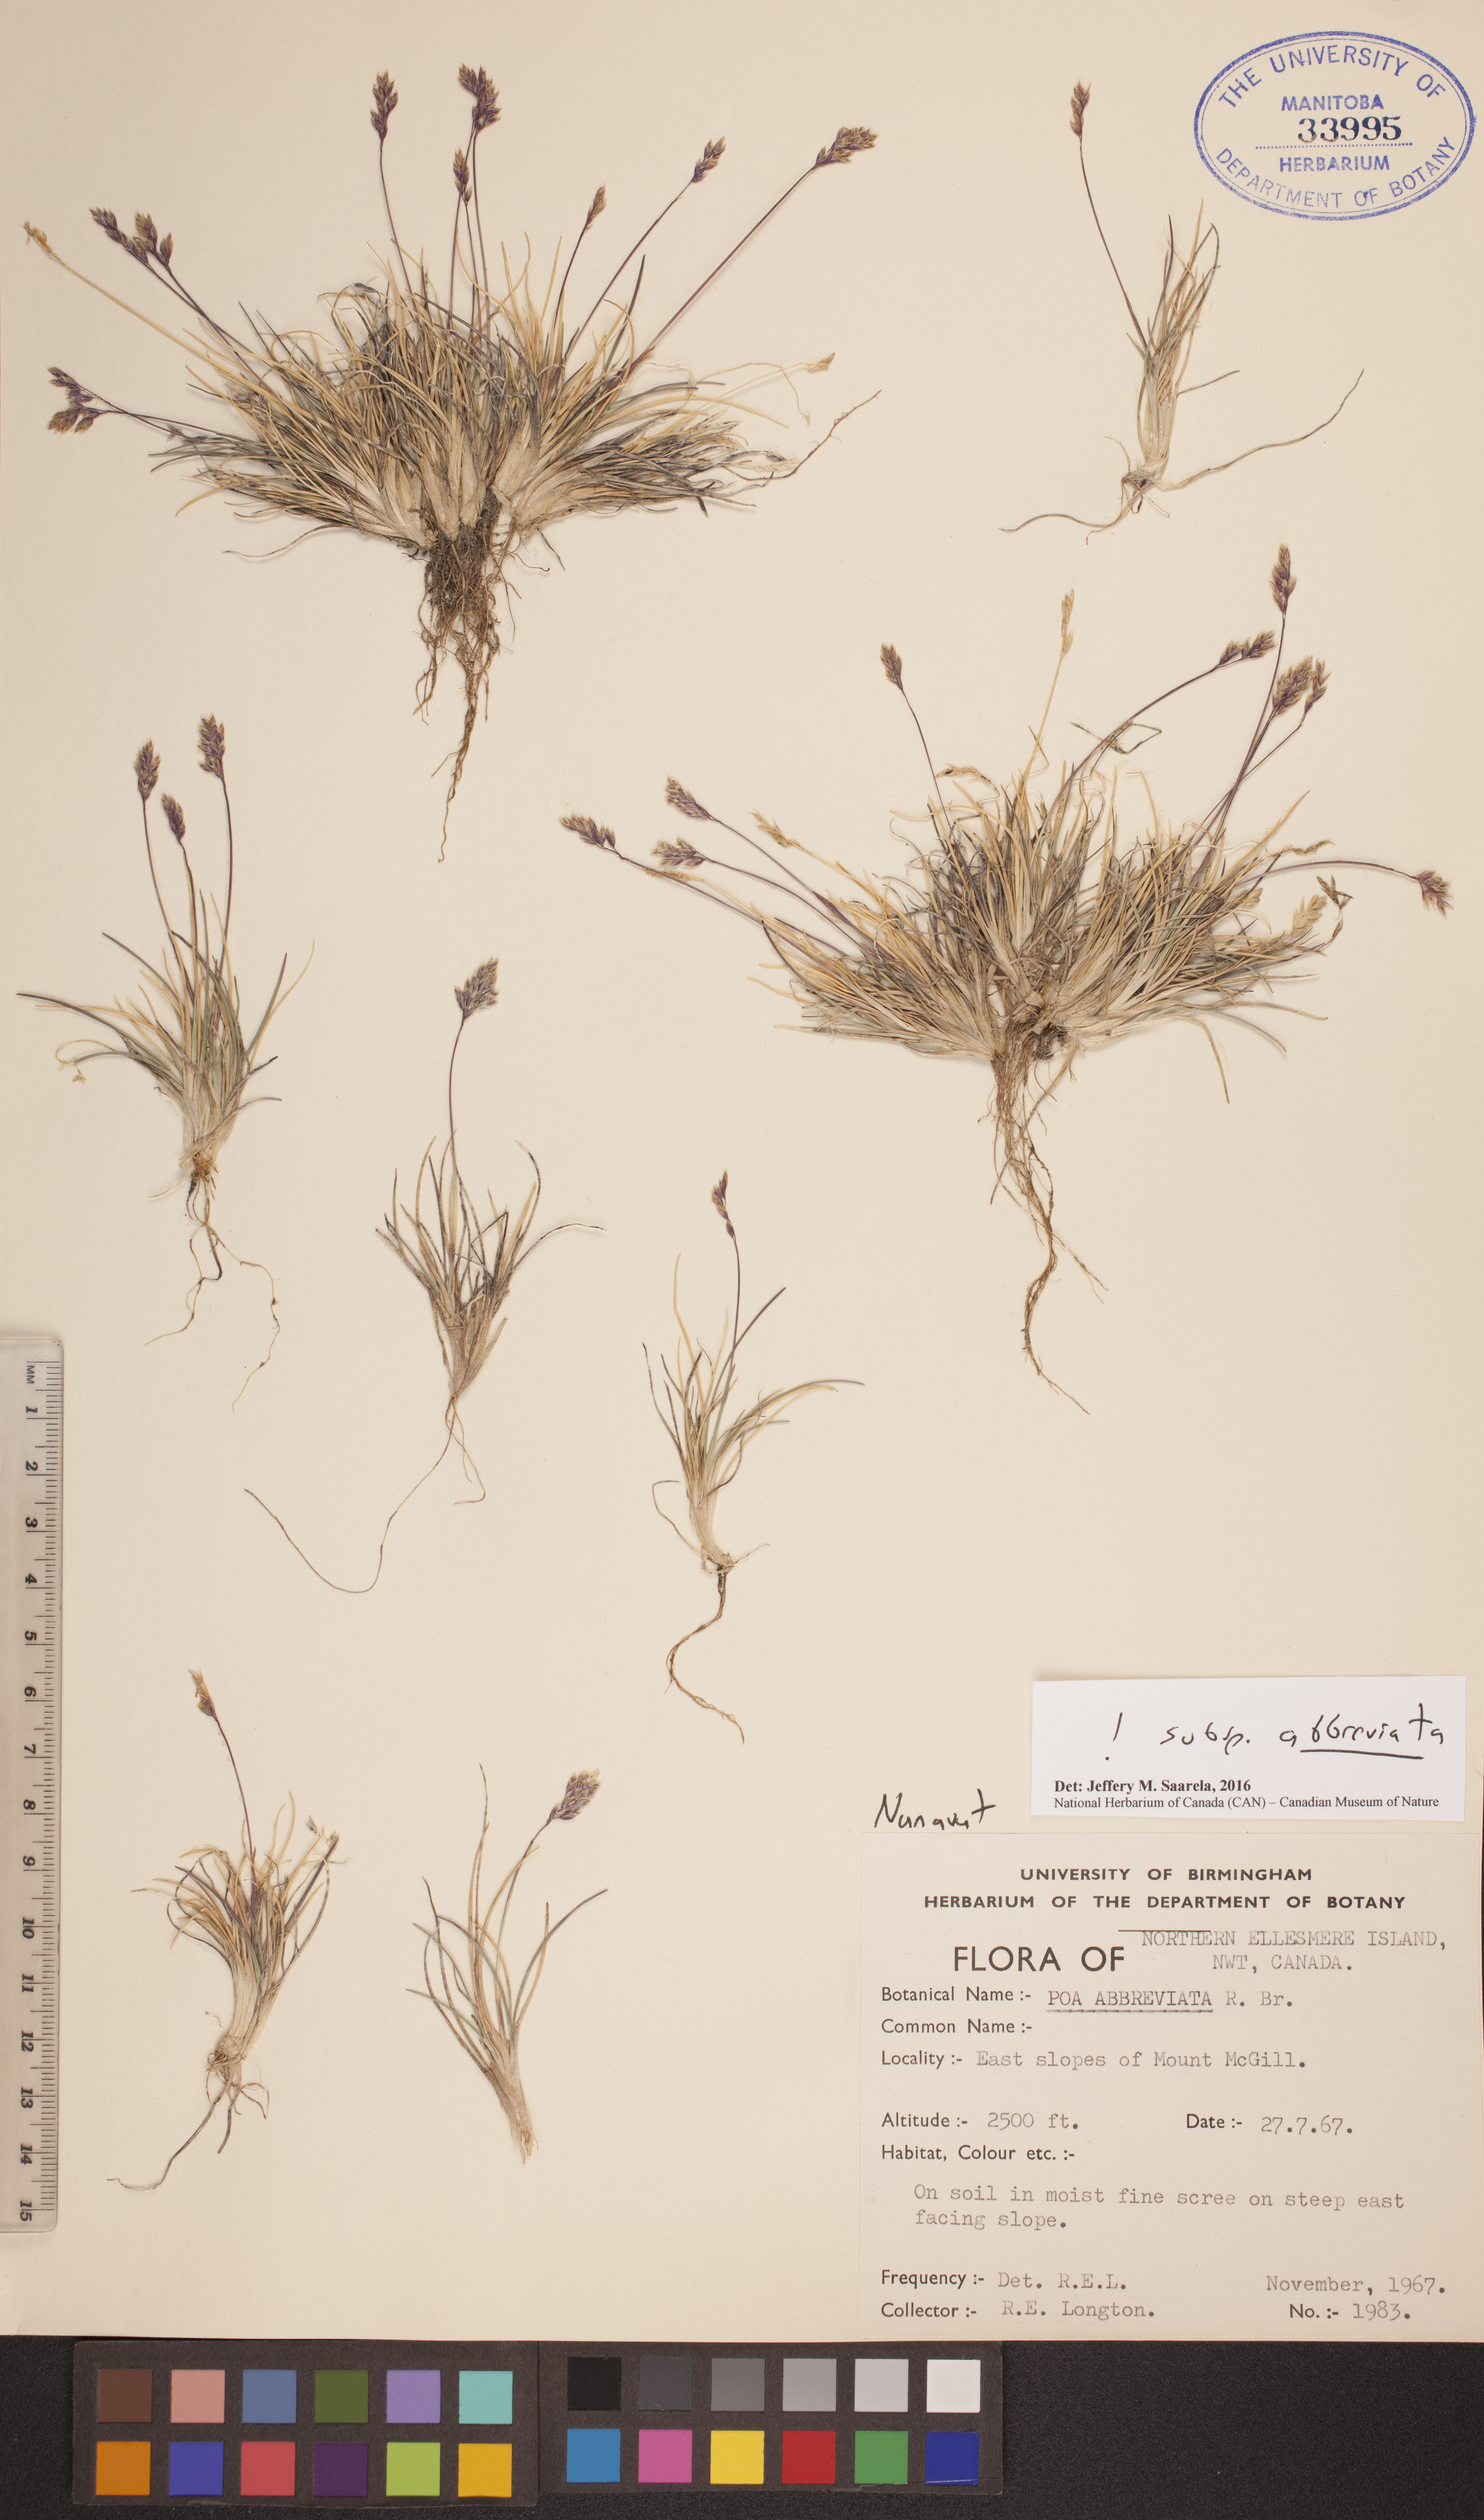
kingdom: Plantae
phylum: Tracheophyta
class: Liliopsida
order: Poales
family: Poaceae
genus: Poa
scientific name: Poa abbreviata
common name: Abbreviated bluegrass
